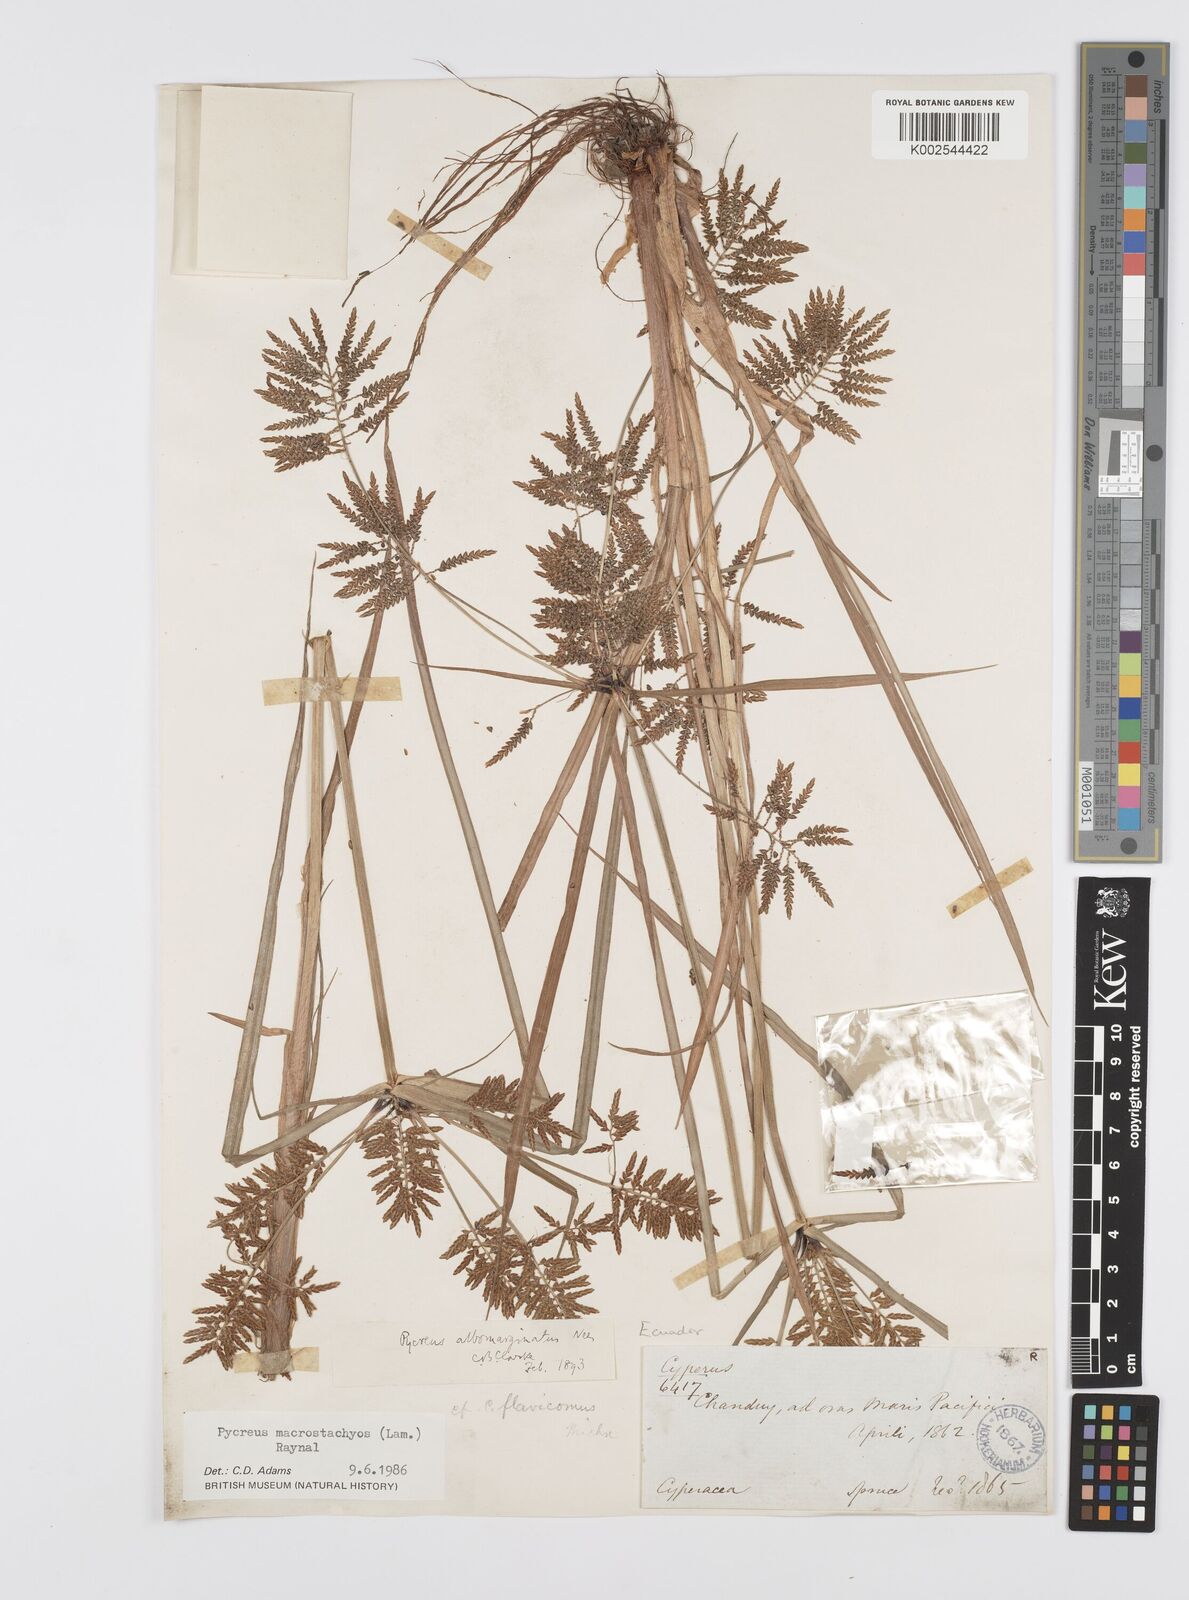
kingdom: Plantae
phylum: Tracheophyta
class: Liliopsida
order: Poales
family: Cyperaceae
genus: Cyperus
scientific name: Cyperus macrostachyos
